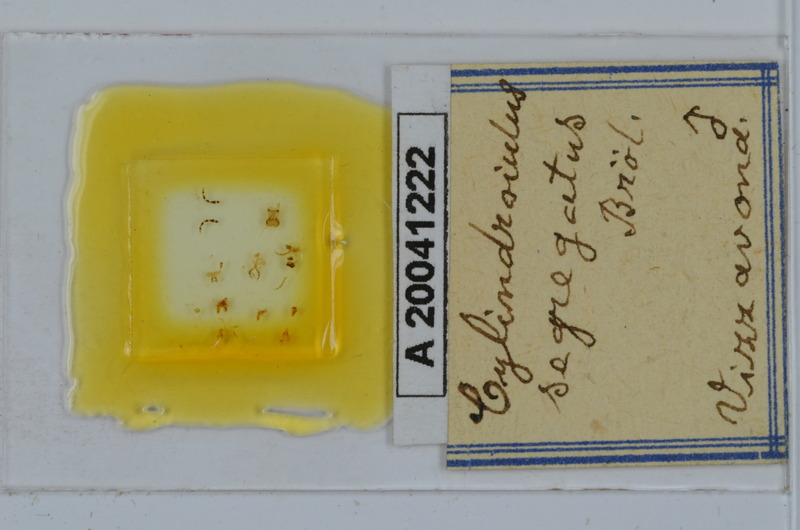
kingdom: Animalia
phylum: Arthropoda
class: Diplopoda
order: Julida
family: Julidae
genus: Cylindroiulus
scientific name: Cylindroiulus segregatus
